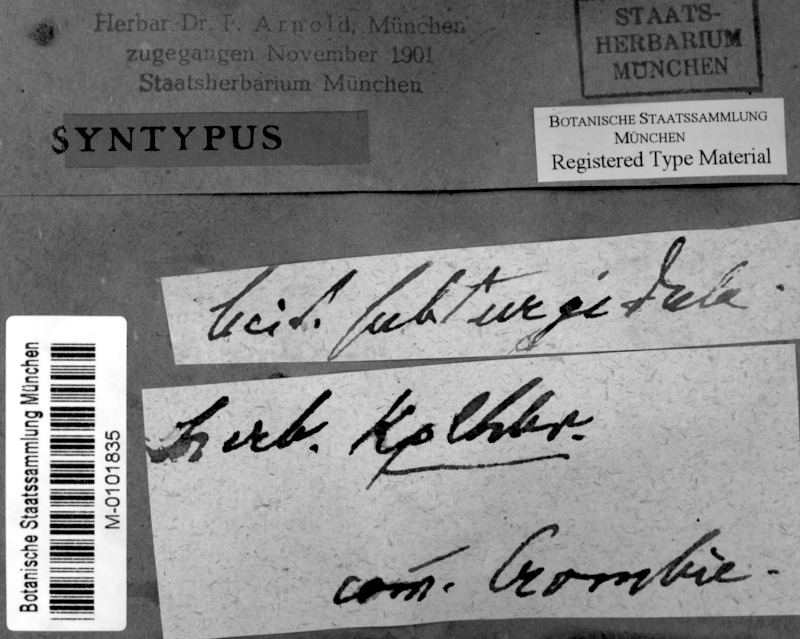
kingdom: Fungi
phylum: Ascomycota
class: Lecanoromycetes
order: Lecanorales
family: Ramalinaceae
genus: Bacidia
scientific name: Bacidia subturgidula
